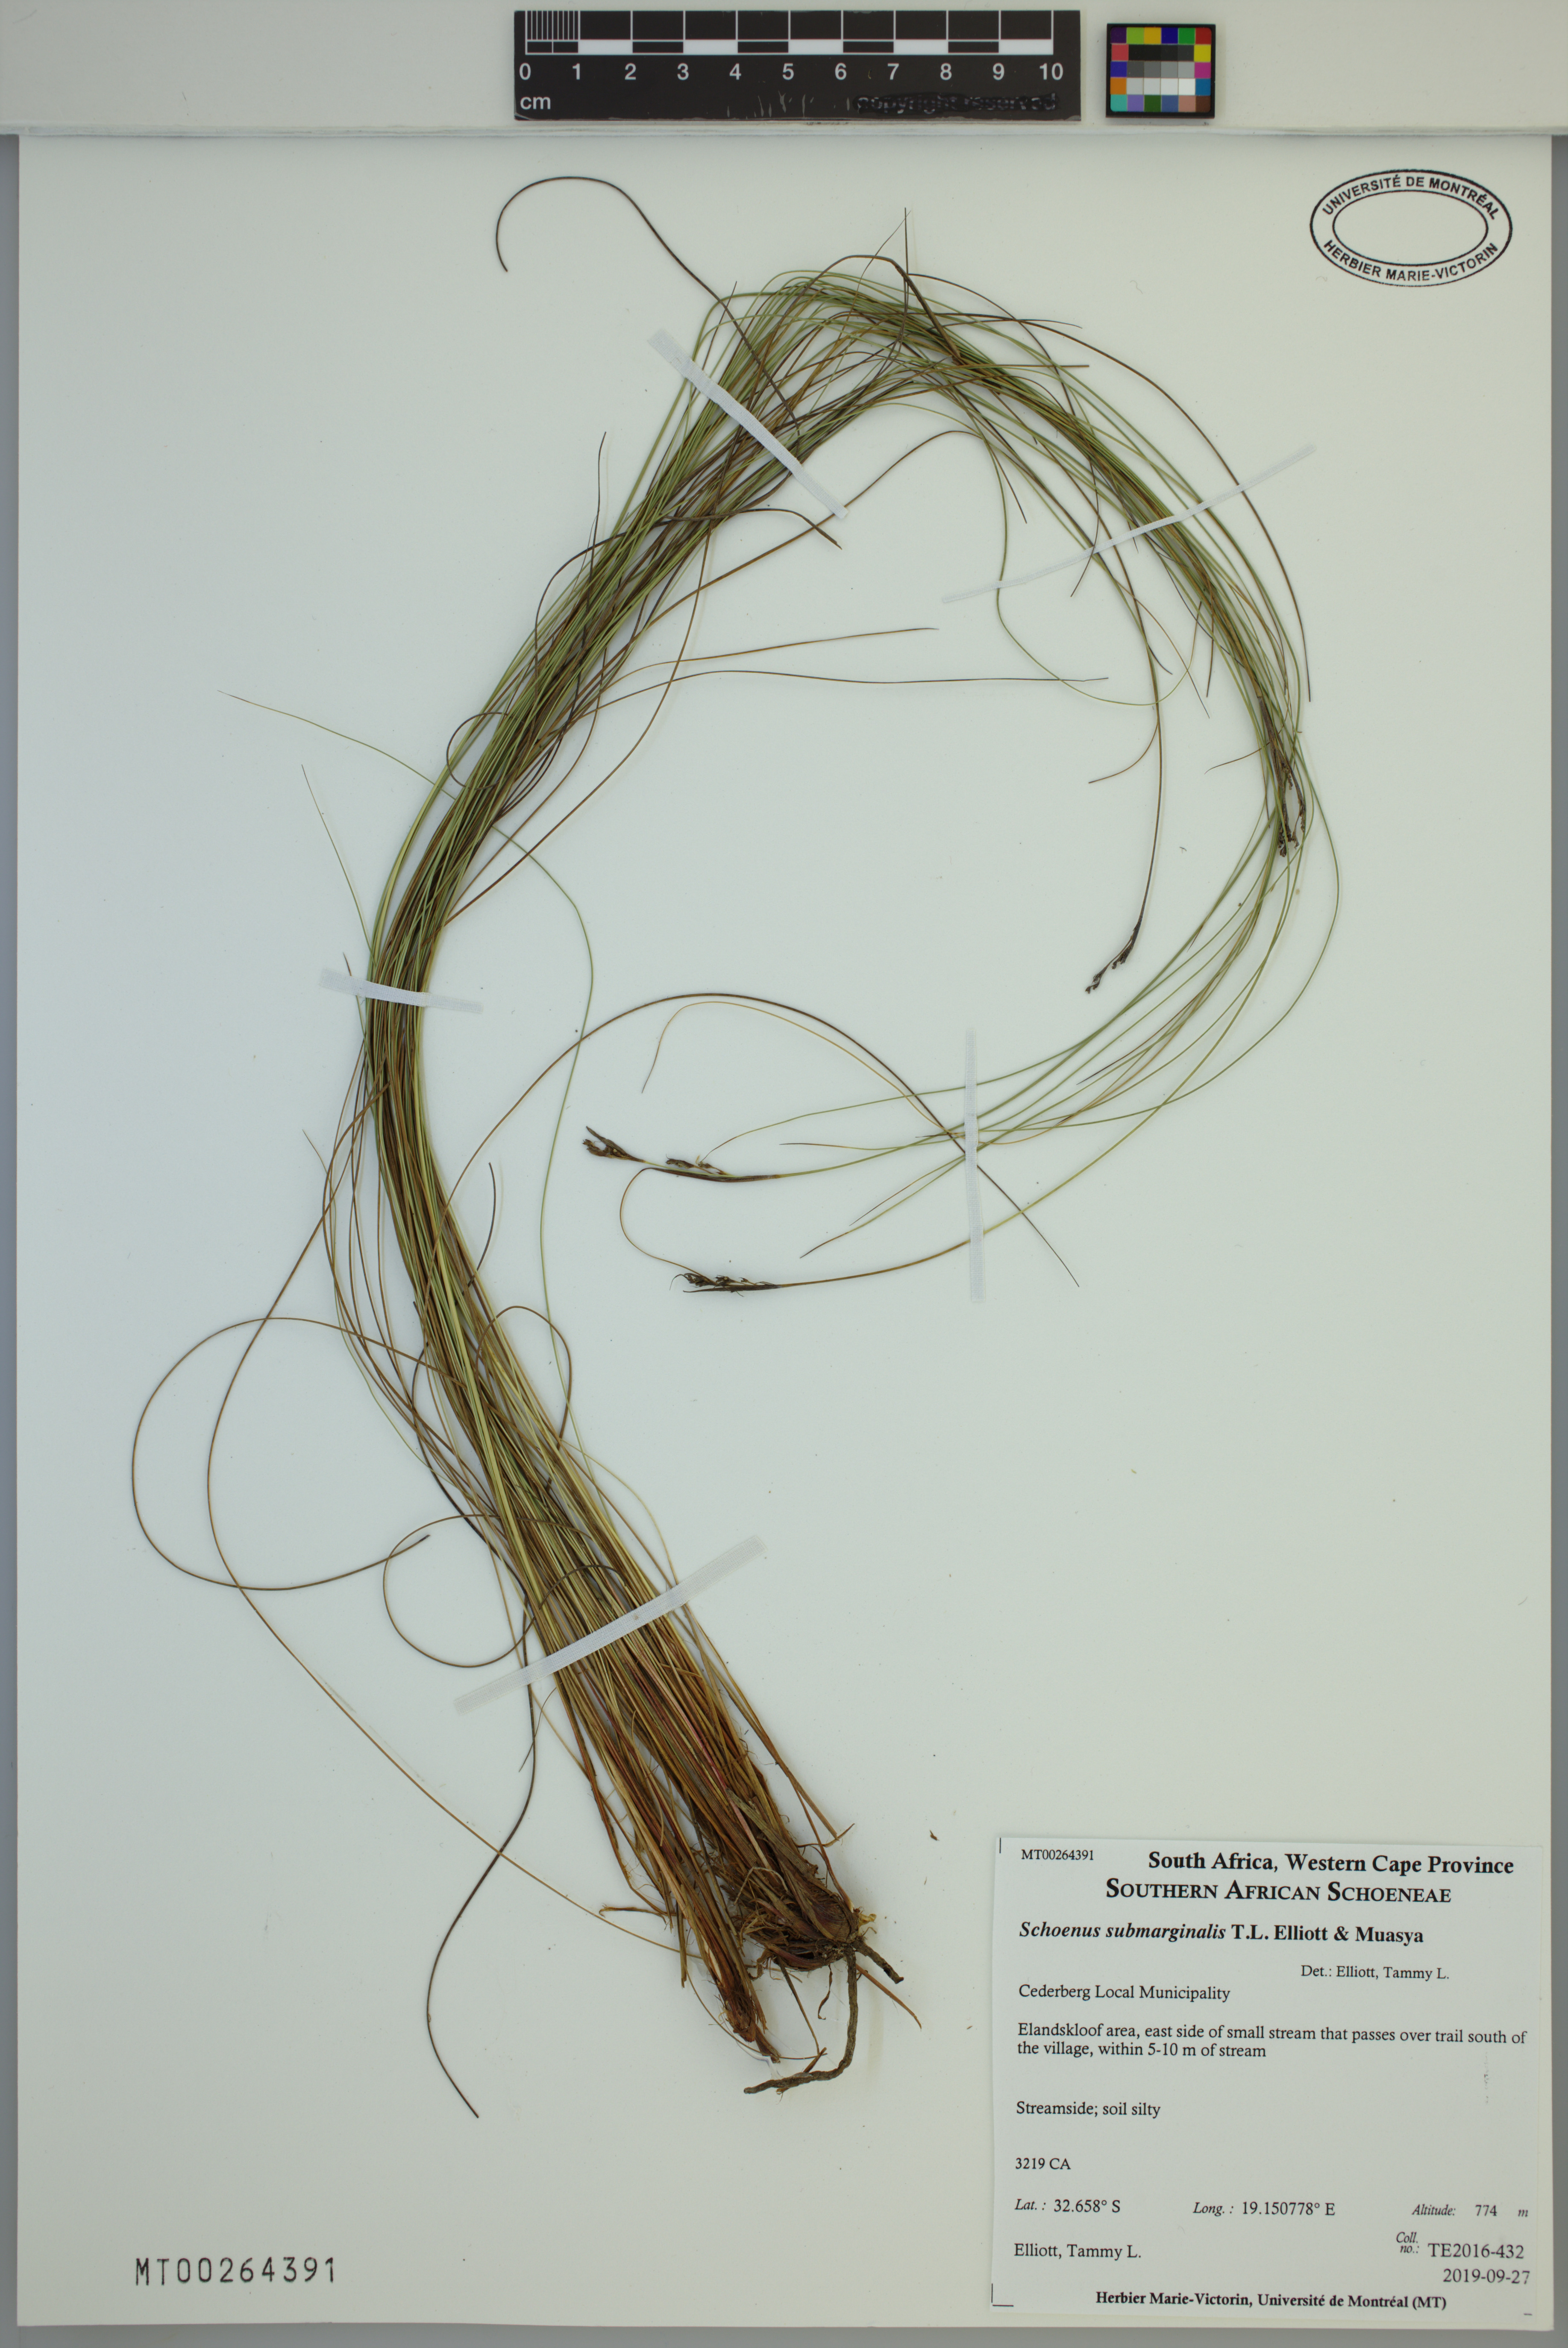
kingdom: Plantae
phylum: Tracheophyta
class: Liliopsida
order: Poales
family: Cyperaceae
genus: Schoenus
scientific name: Schoenus submarginalis
